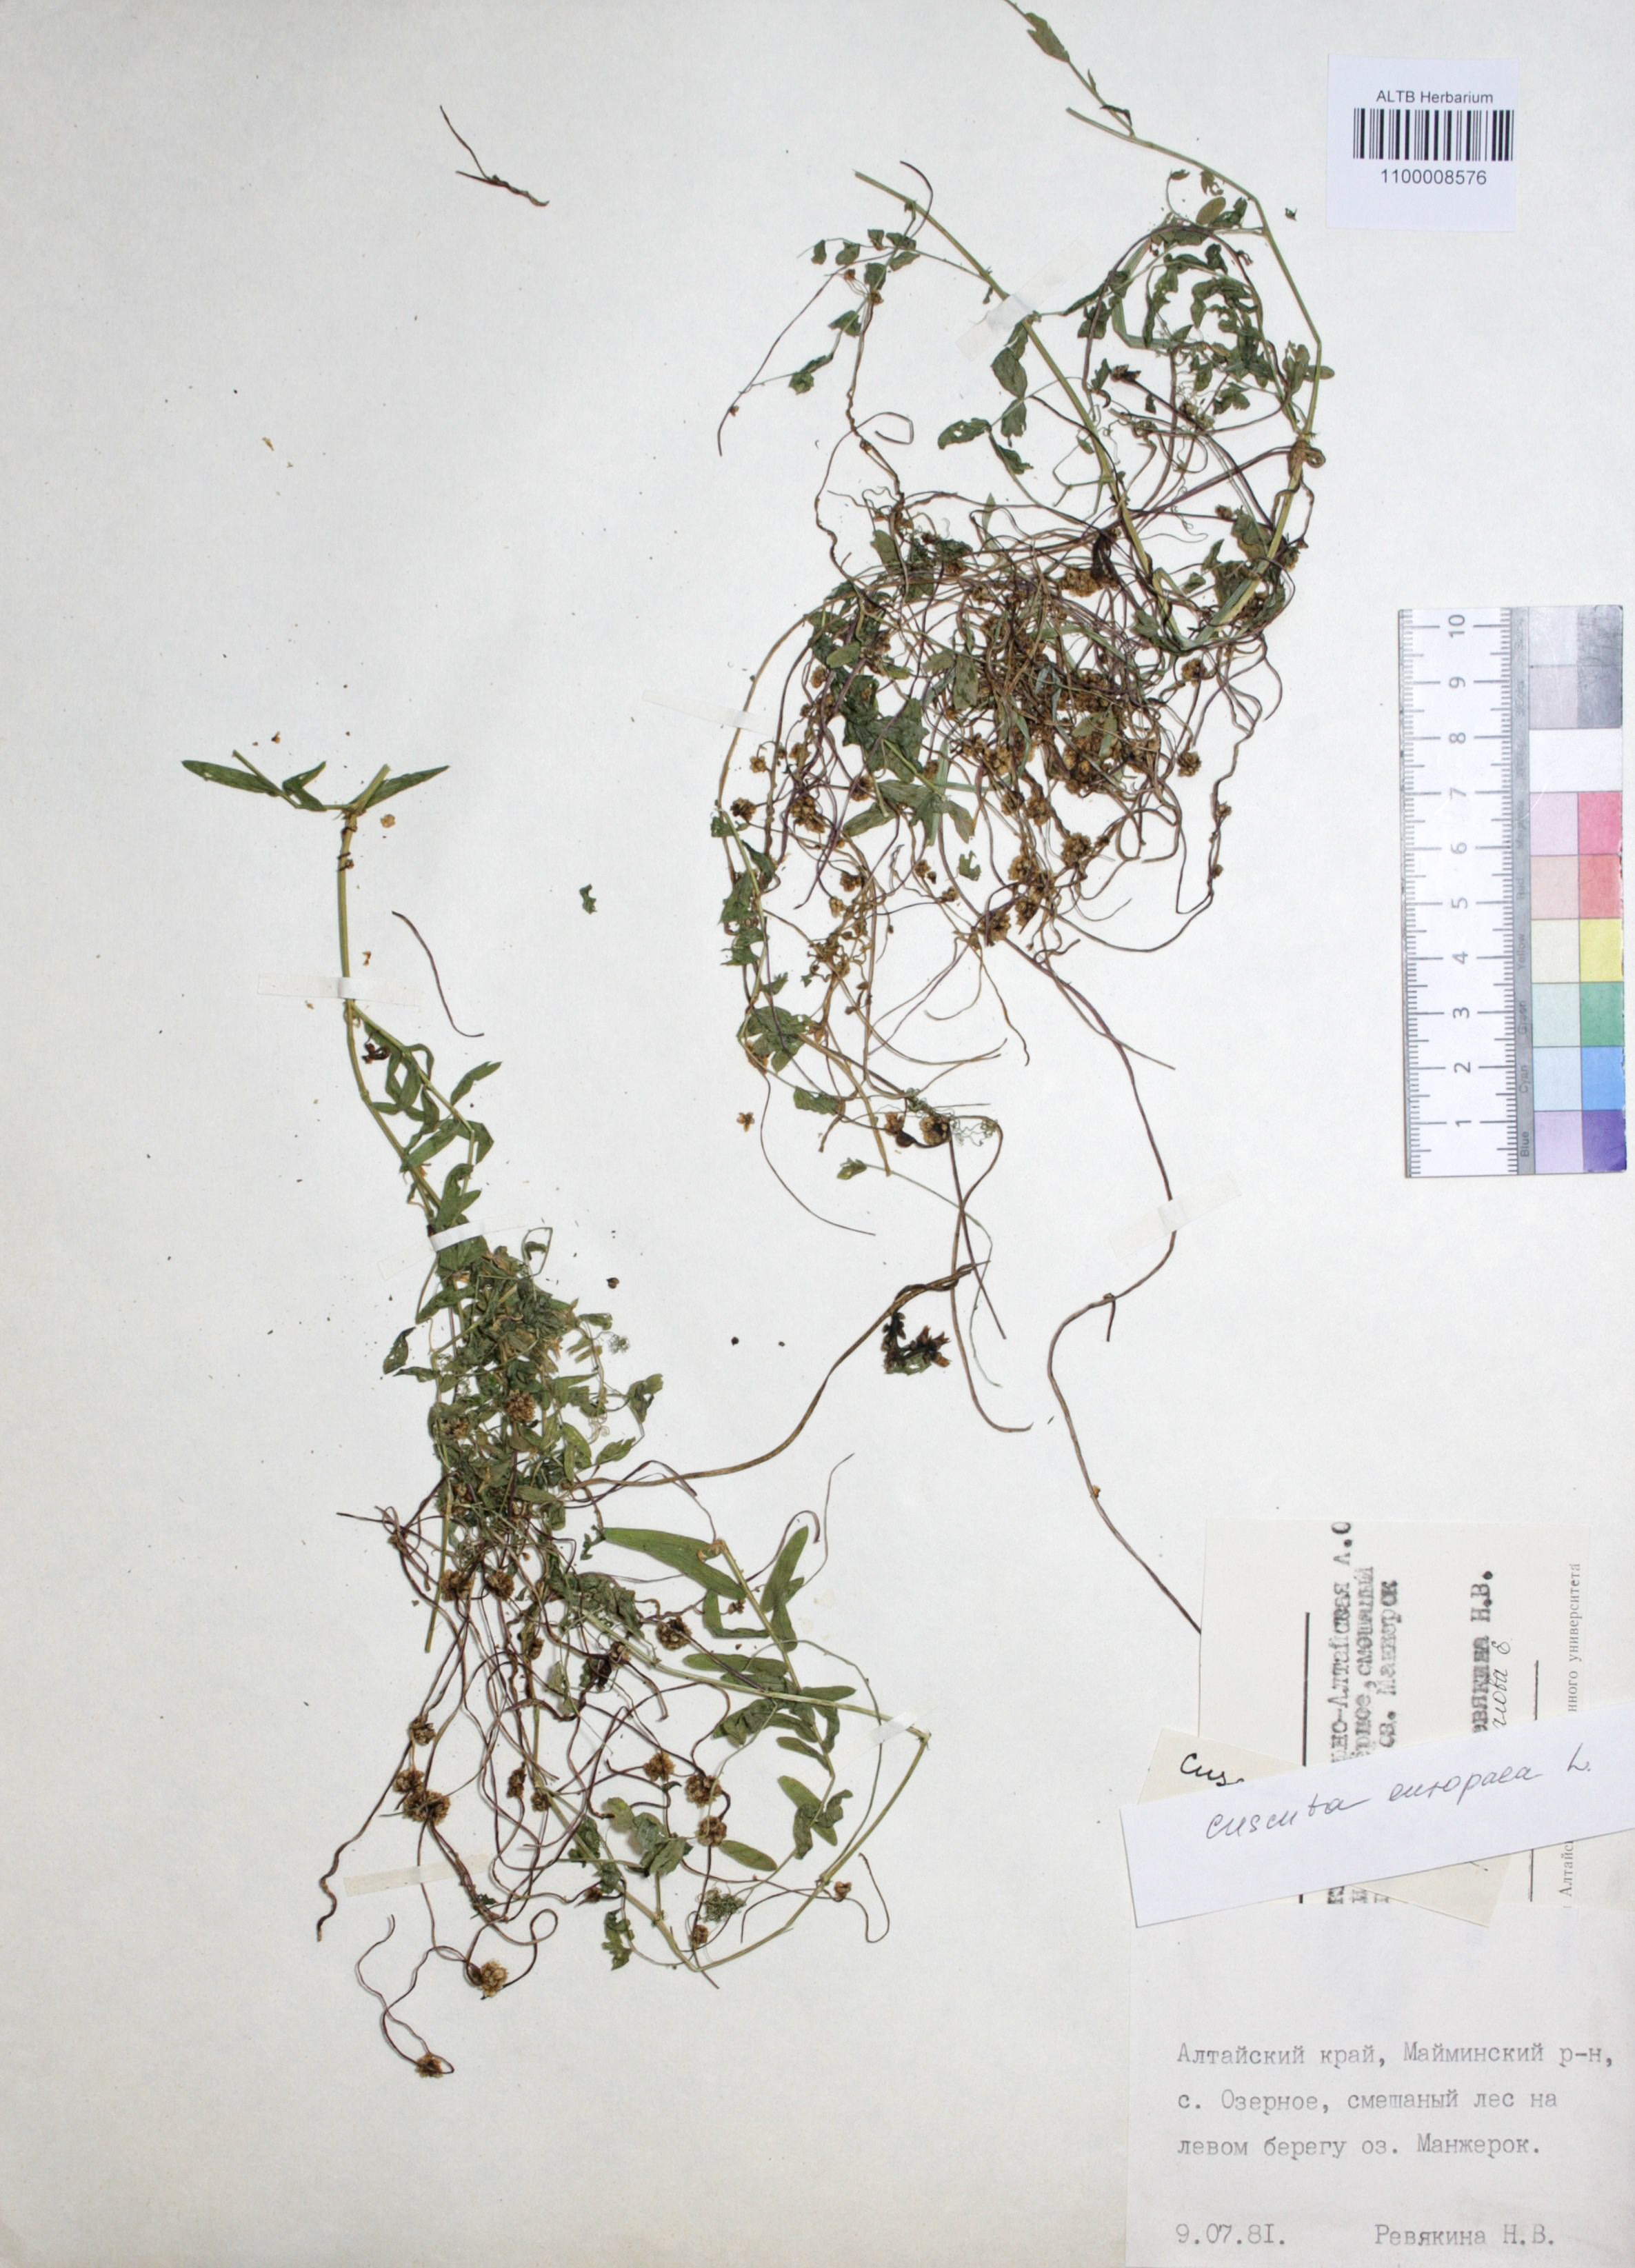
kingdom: Plantae
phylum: Tracheophyta
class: Magnoliopsida
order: Solanales
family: Convolvulaceae
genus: Cuscuta
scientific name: Cuscuta europaea
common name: Greater dodder
